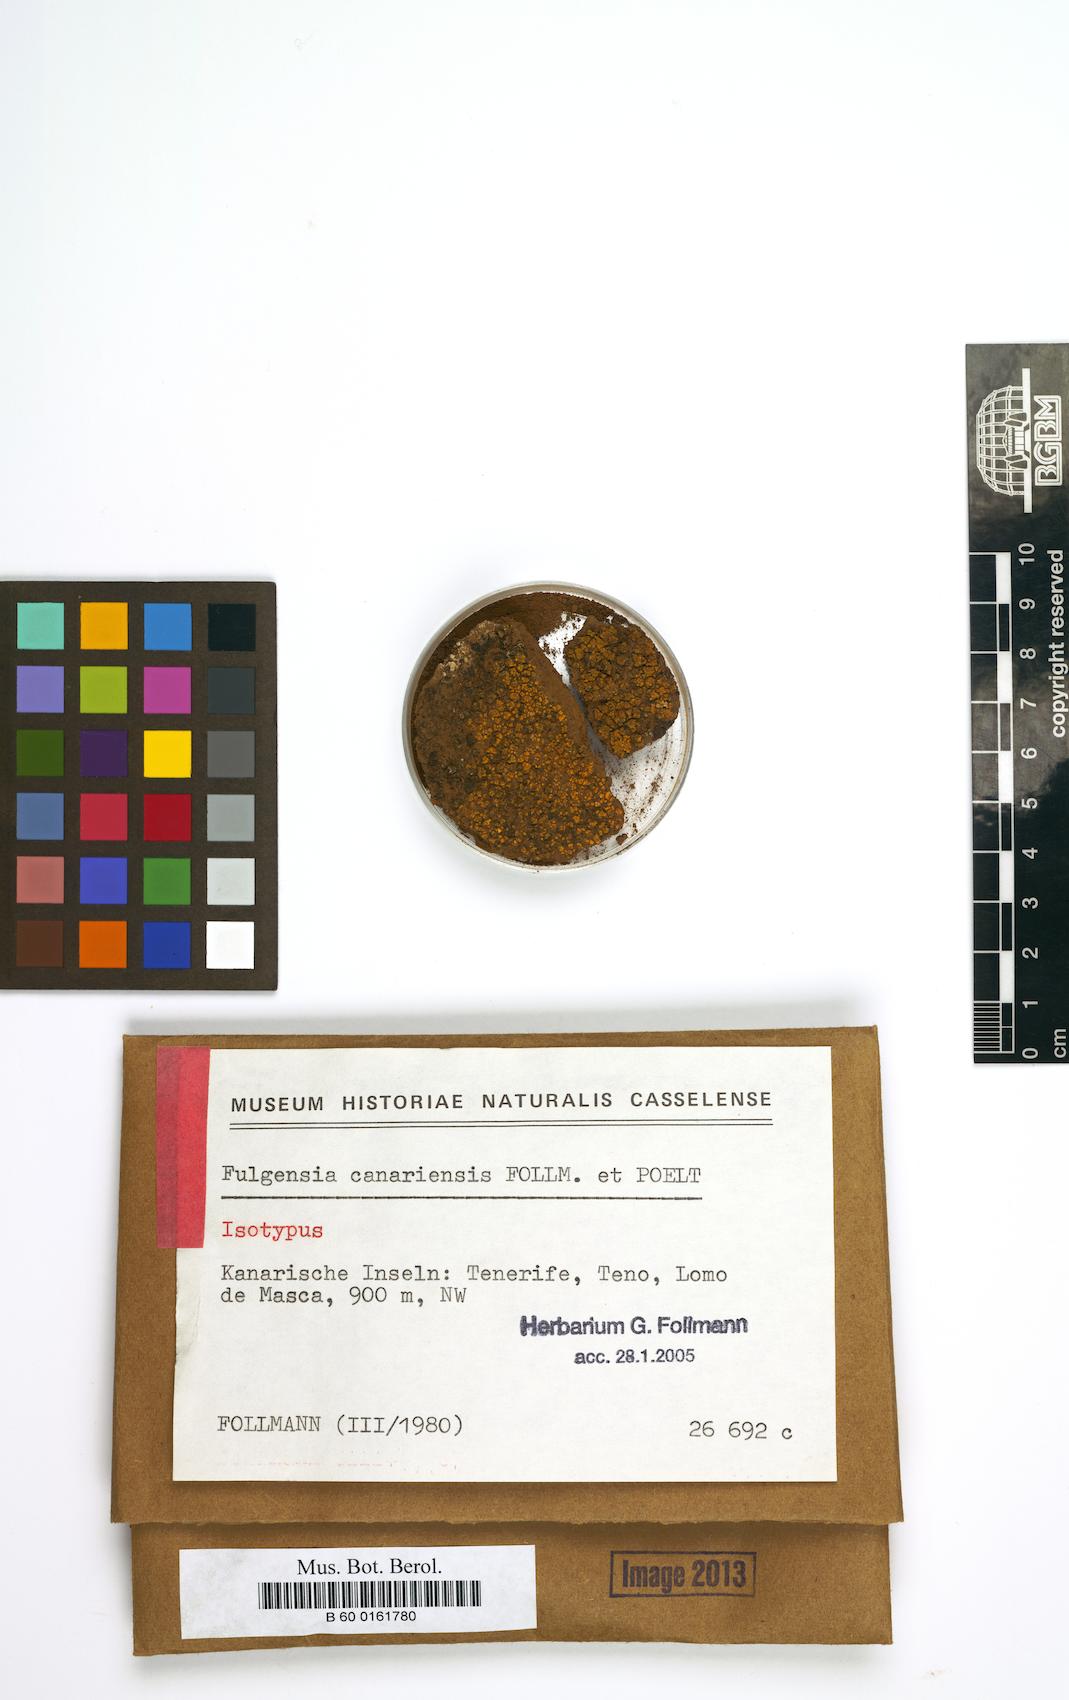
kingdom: Fungi
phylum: Ascomycota
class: Lecanoromycetes
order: Teloschistales
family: Teloschistaceae
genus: Gyalolechia
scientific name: Gyalolechia canariensis
